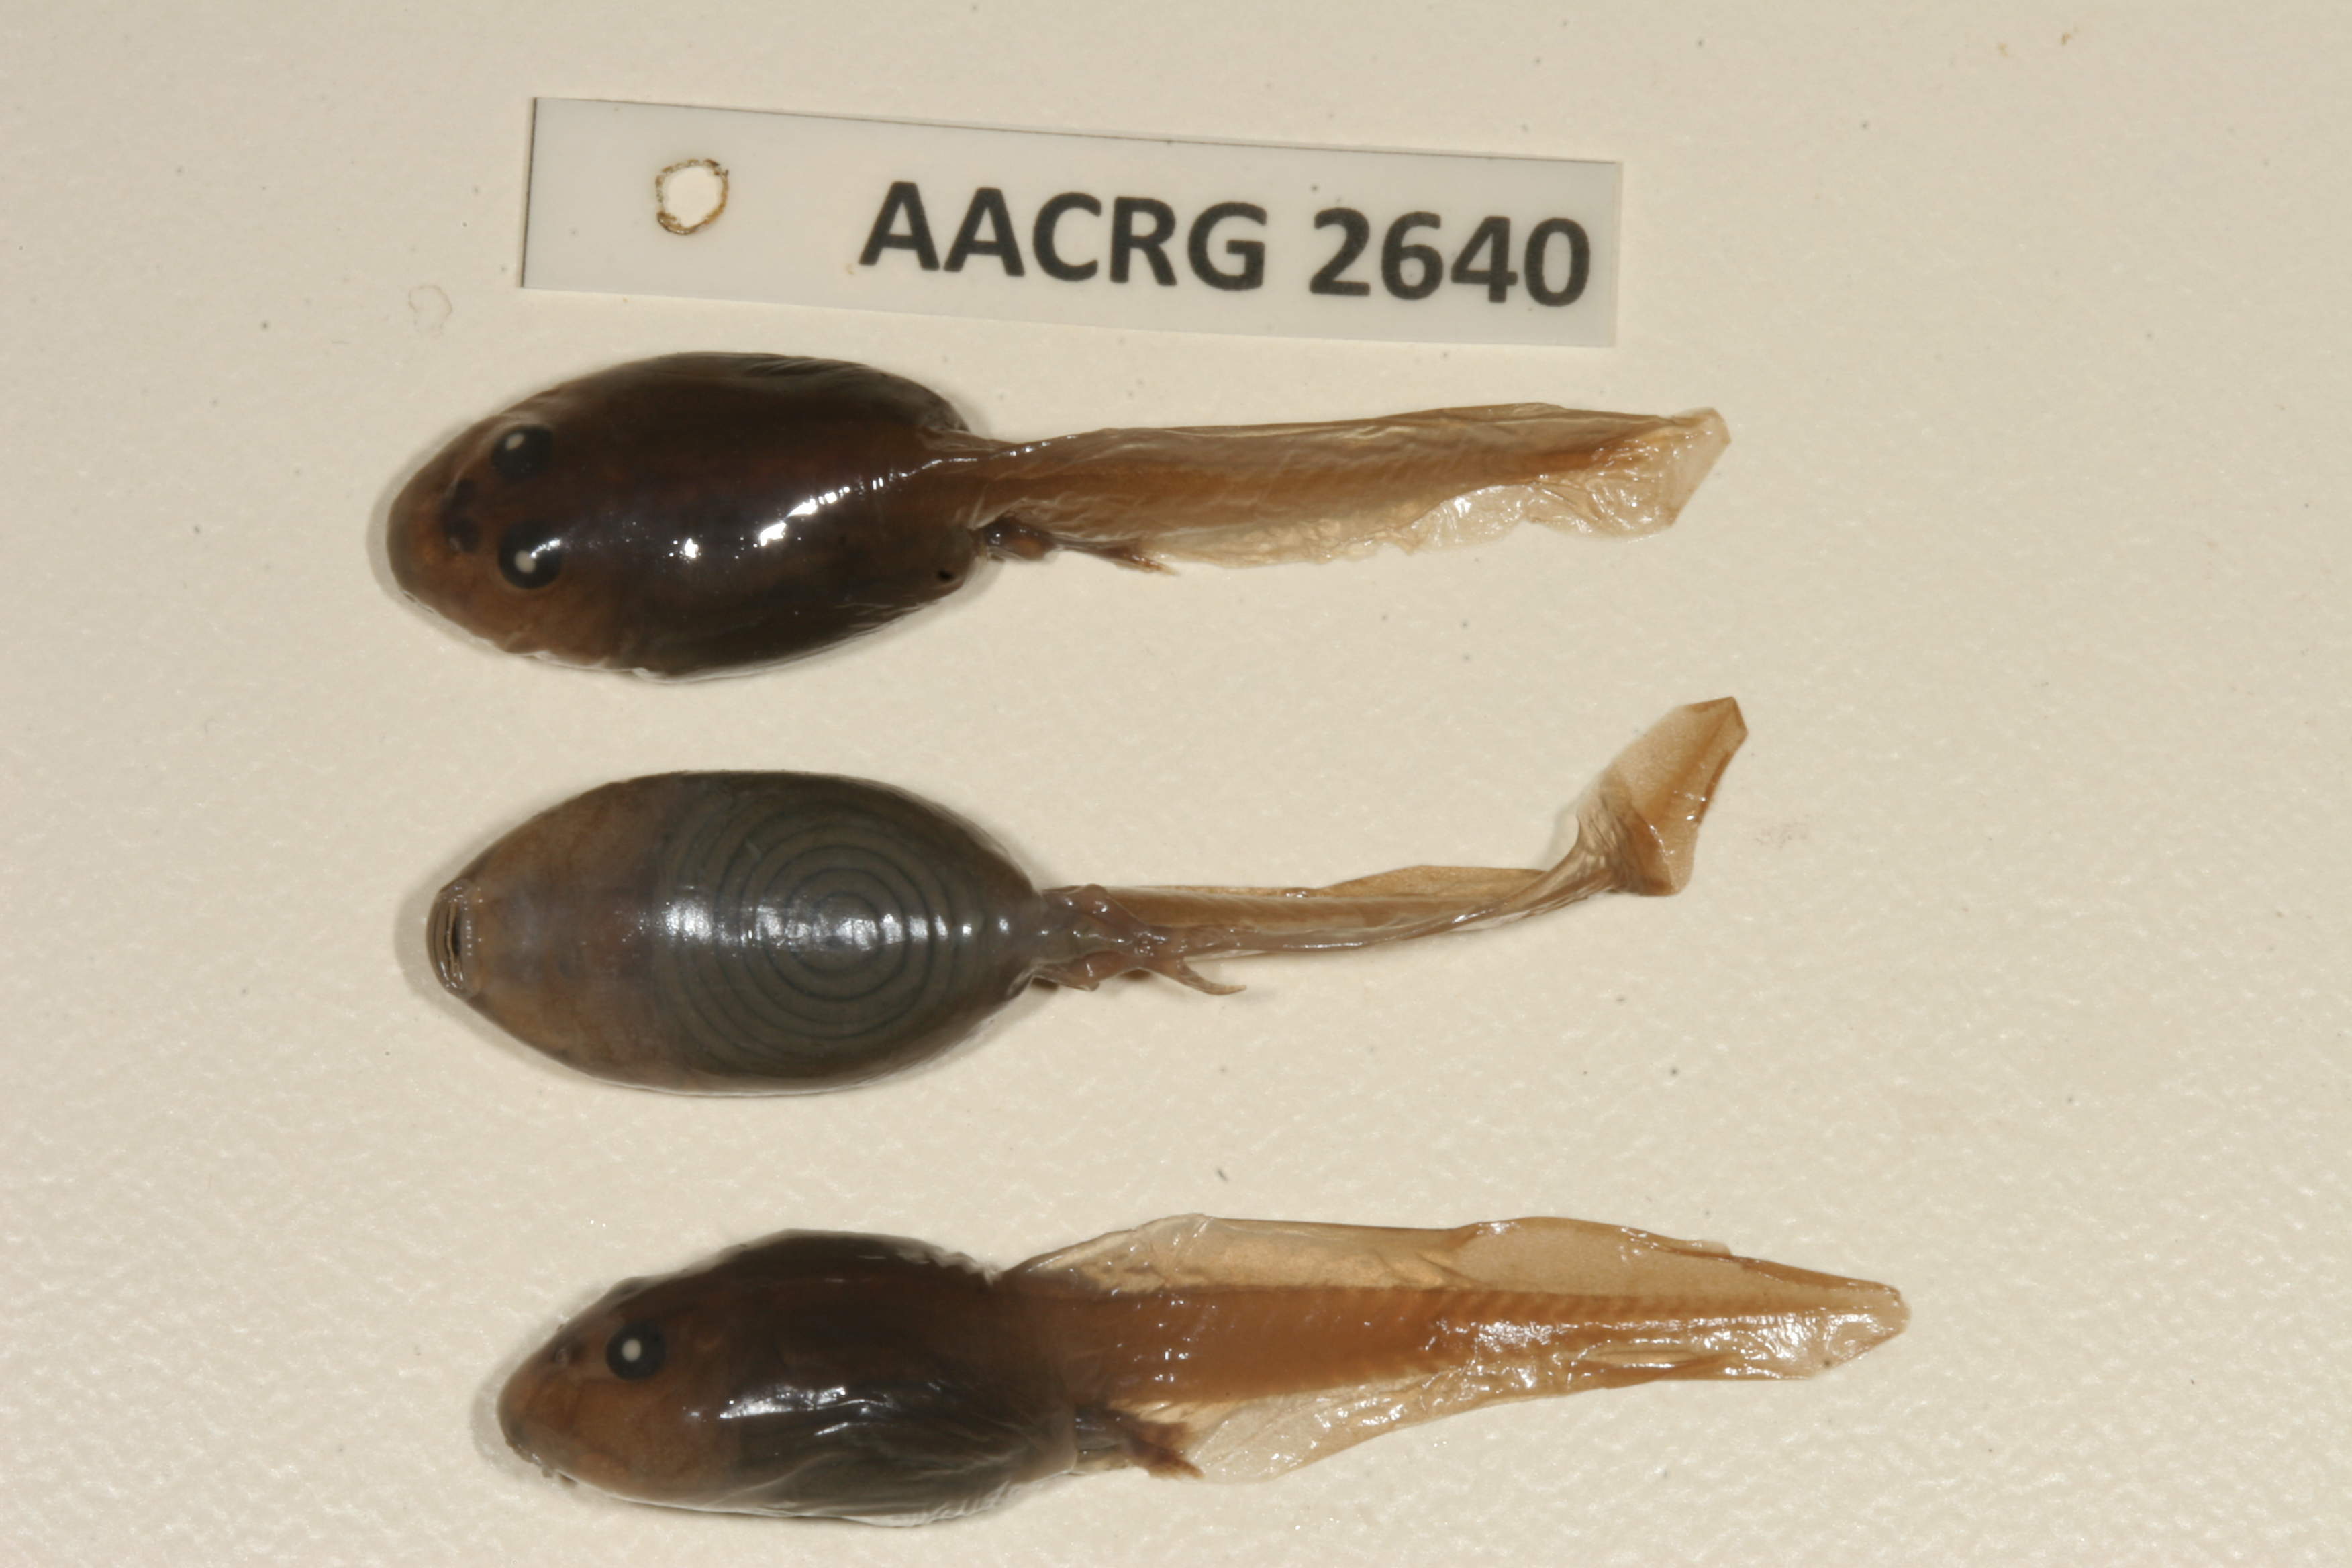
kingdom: Animalia
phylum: Chordata
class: Amphibia
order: Anura
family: Pyxicephalidae
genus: Pyxicephalus
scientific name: Pyxicephalus edulis
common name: Peter's bullfrog
